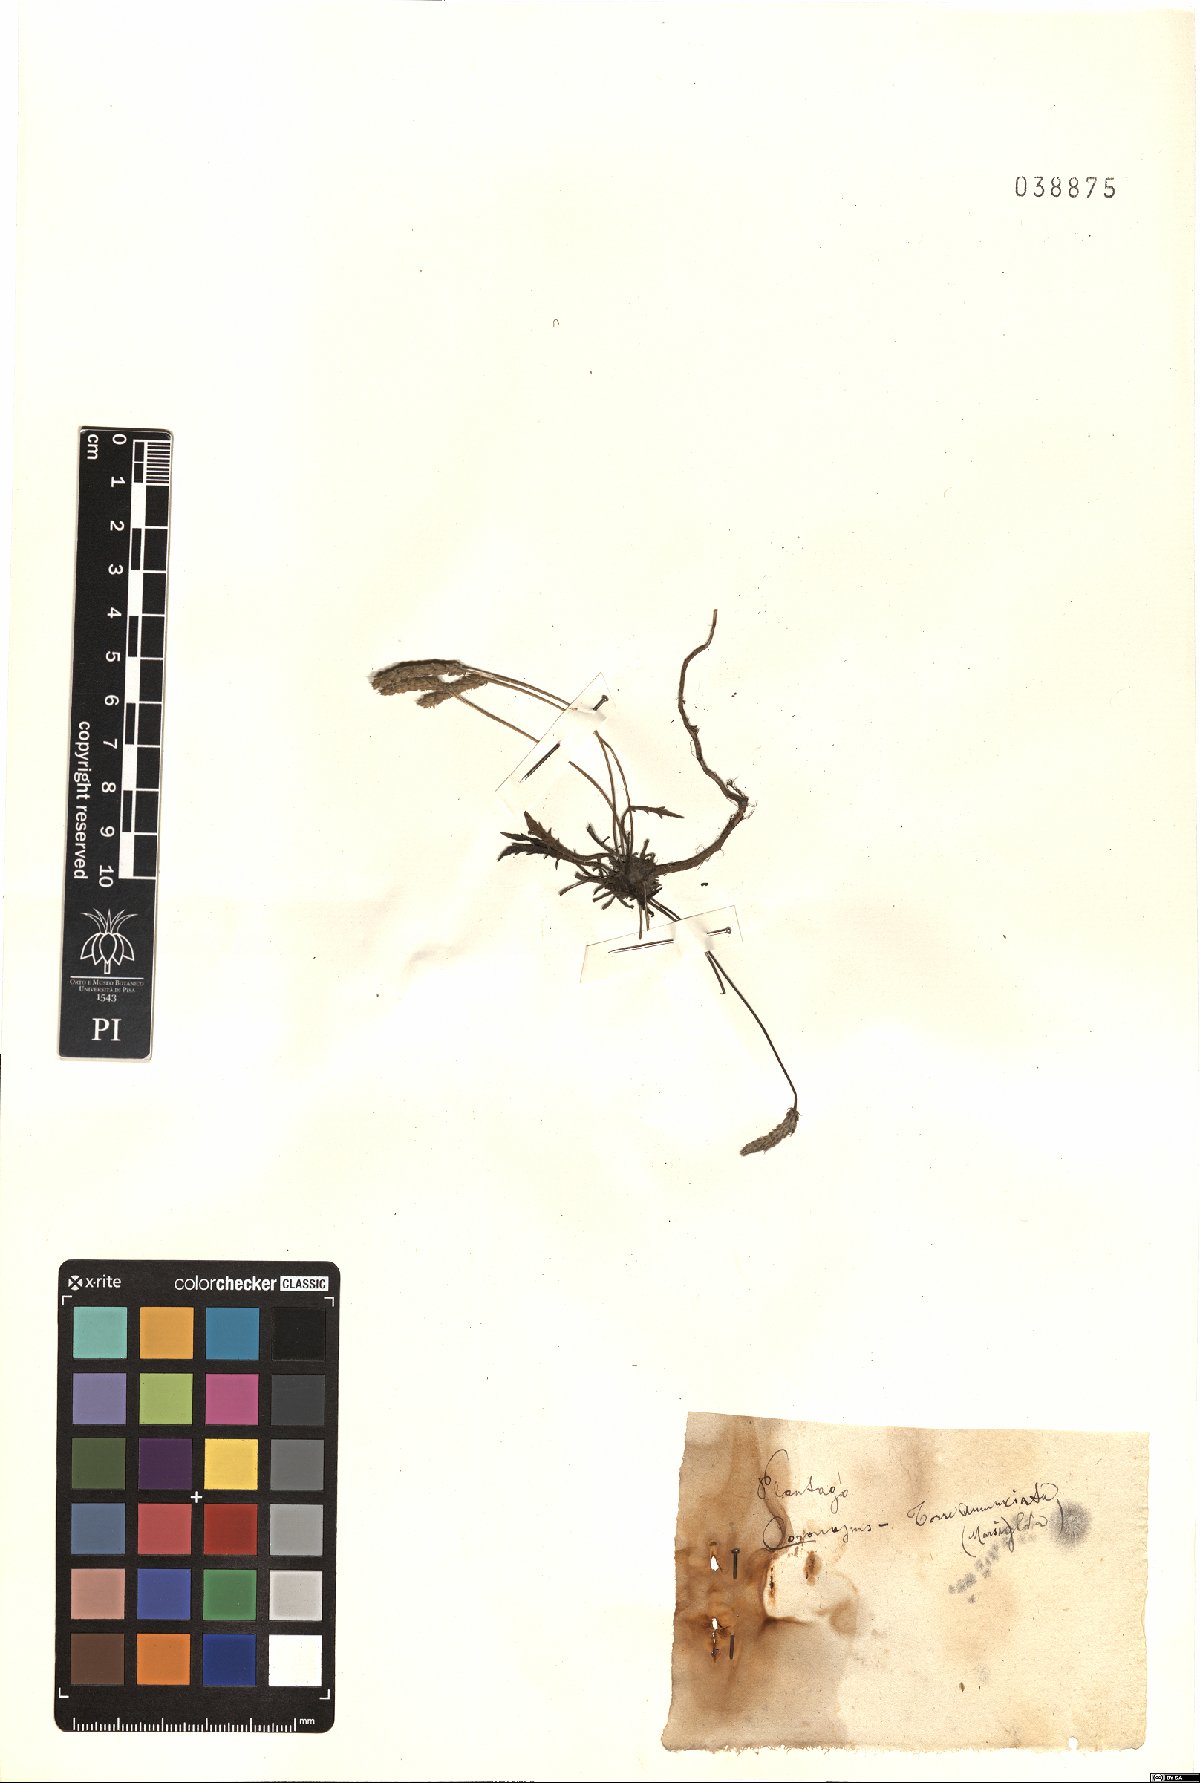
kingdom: Plantae
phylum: Tracheophyta
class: Magnoliopsida
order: Lamiales
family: Plantaginaceae
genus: Plantago
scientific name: Plantago coronopus
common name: Buck's-horn plantain
